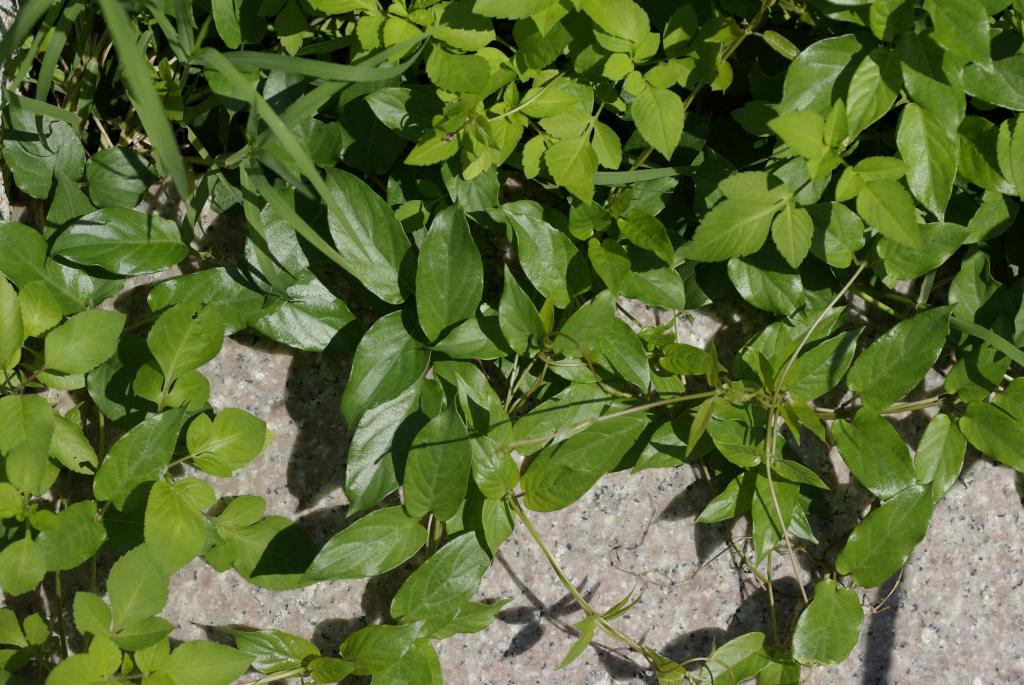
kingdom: Plantae
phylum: Tracheophyta
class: Magnoliopsida
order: Gentianales
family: Rubiaceae
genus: Paederia
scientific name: Paederia foetida
